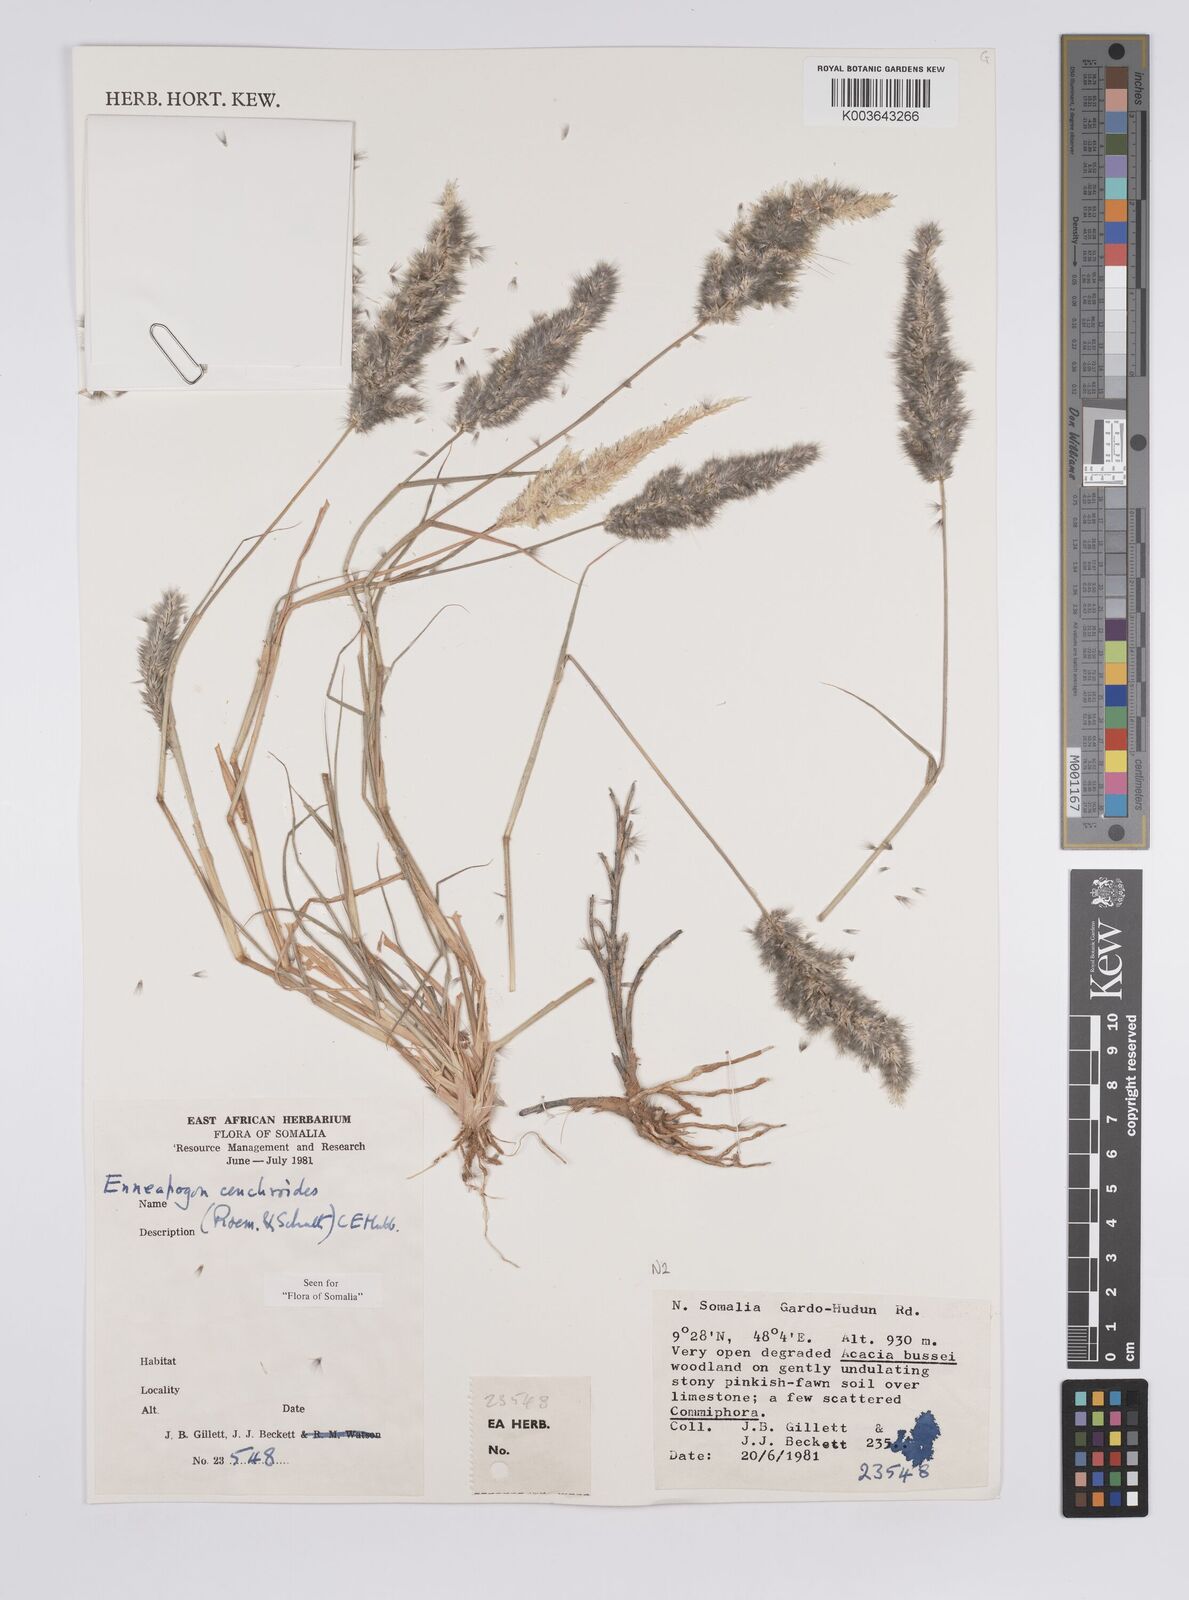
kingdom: Plantae
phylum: Tracheophyta
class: Liliopsida
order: Poales
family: Poaceae
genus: Enneapogon
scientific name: Enneapogon cenchroides
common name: Soft feather pappusgrass
